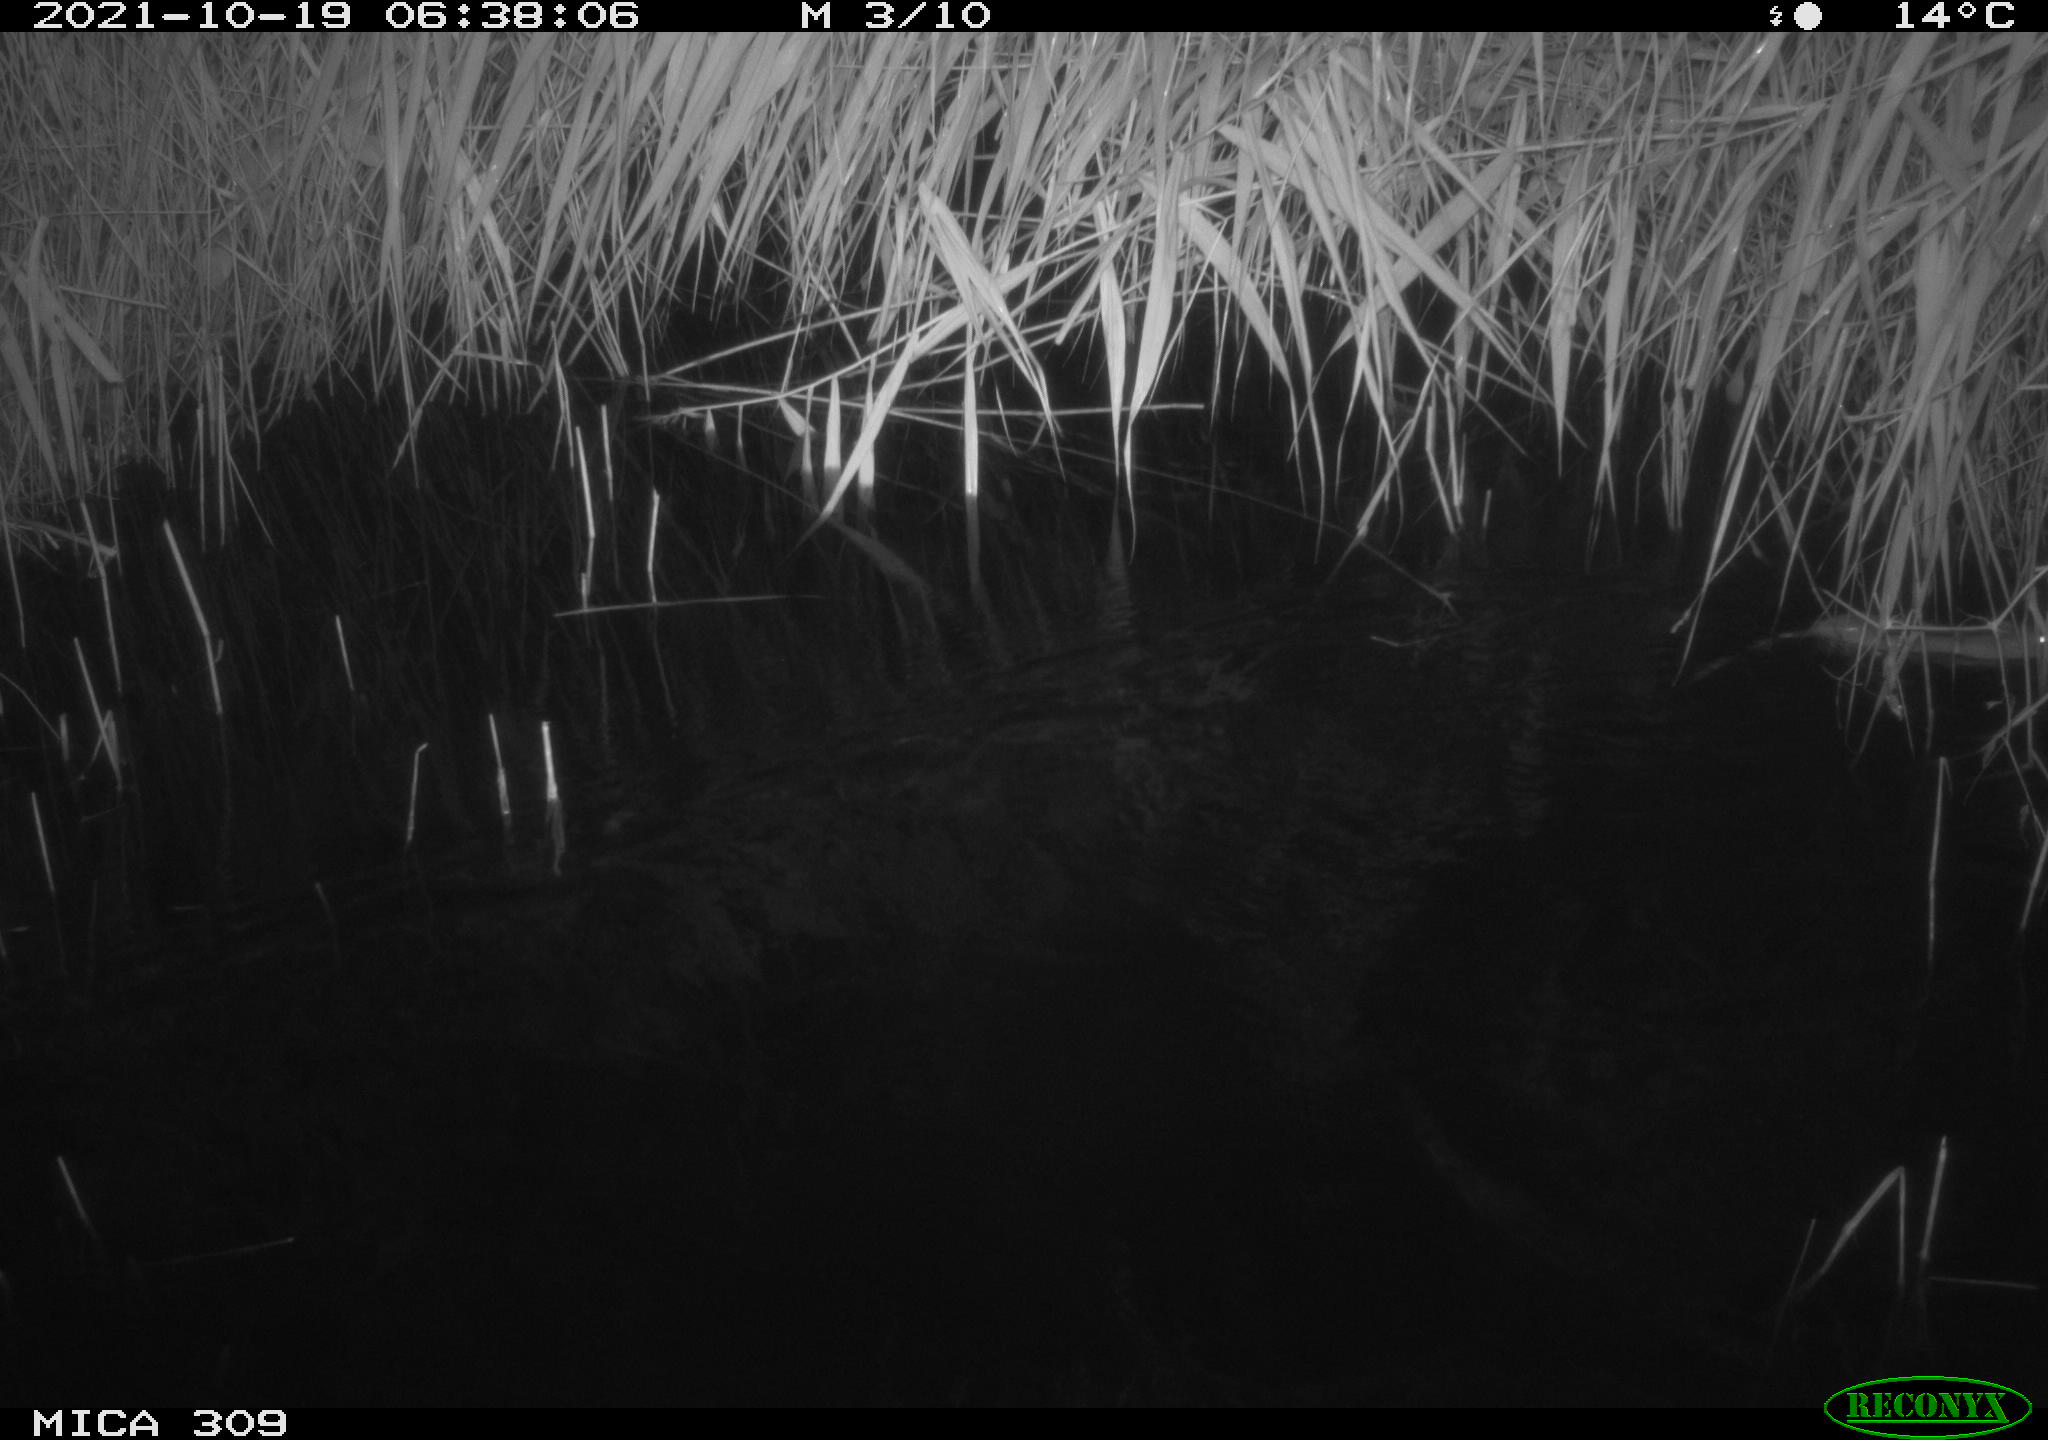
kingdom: Animalia
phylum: Chordata
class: Mammalia
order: Rodentia
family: Muridae
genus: Rattus
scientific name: Rattus norvegicus
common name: Brown rat
